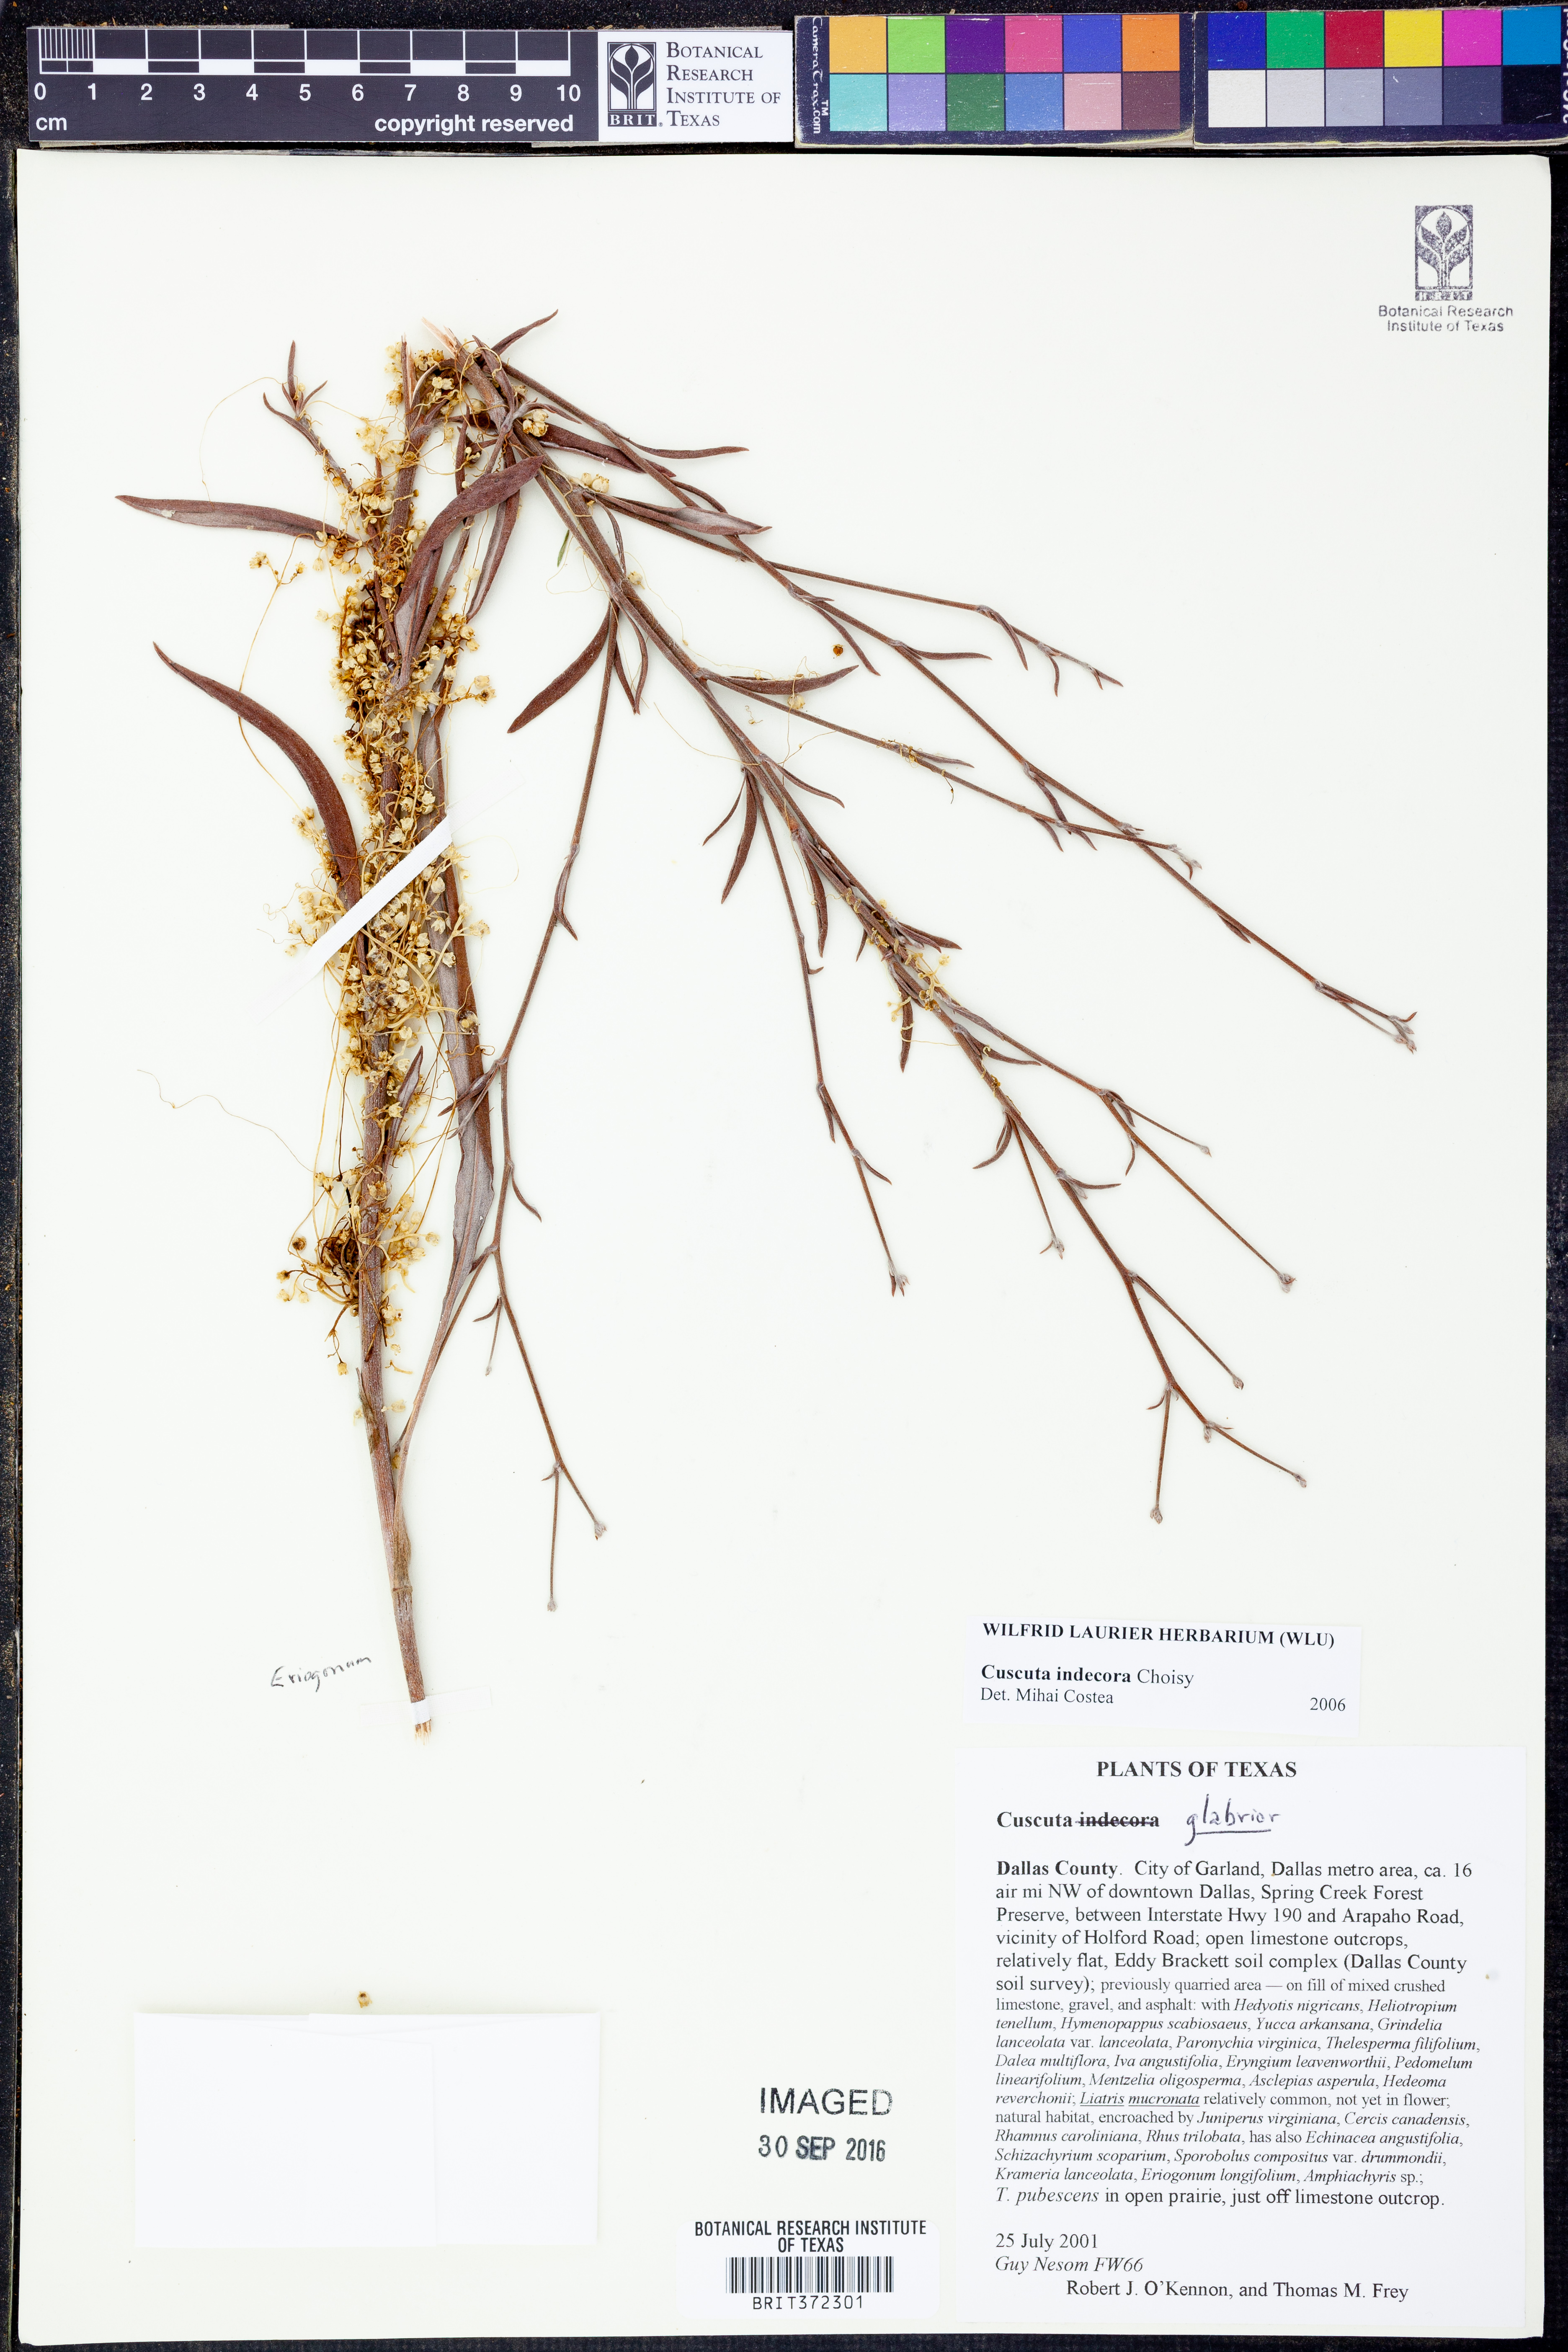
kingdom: Plantae
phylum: Tracheophyta
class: Magnoliopsida
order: Solanales
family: Convolvulaceae
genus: Cuscuta
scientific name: Cuscuta indecora
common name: Large-seed dodder
